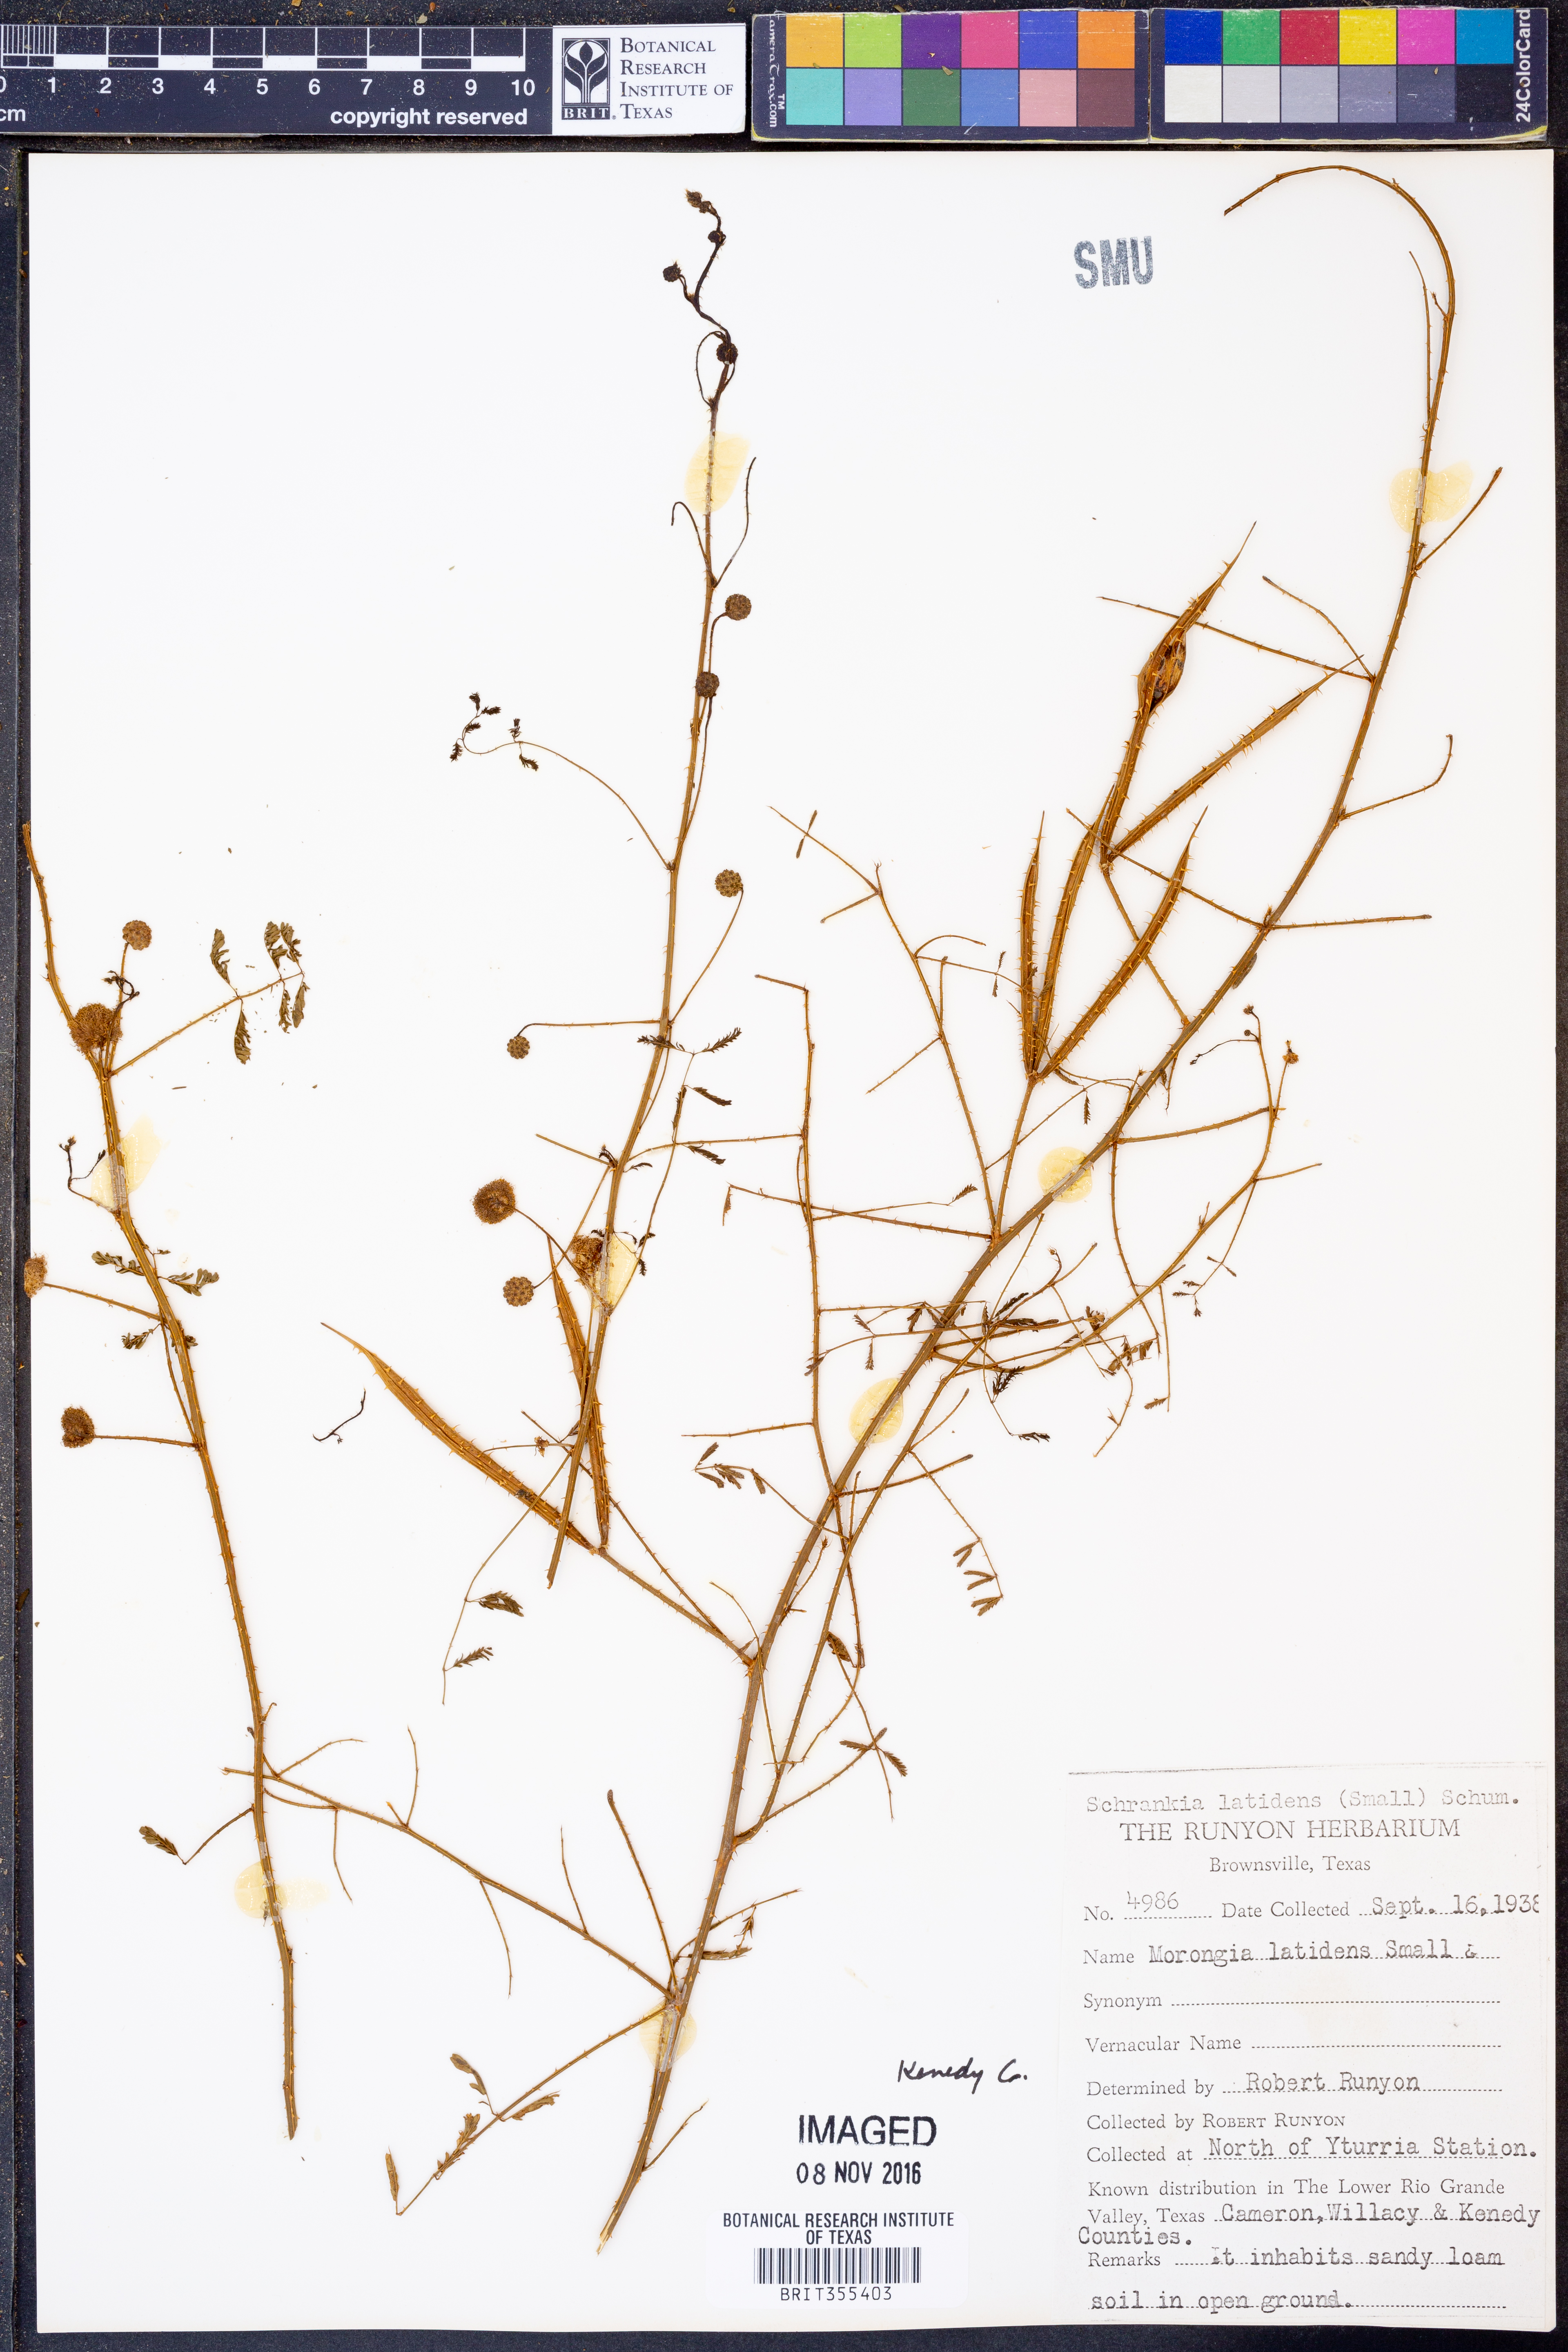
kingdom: Plantae
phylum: Tracheophyta
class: Magnoliopsida
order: Fabales
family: Fabaceae
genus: Mimosa
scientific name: Mimosa latidens
